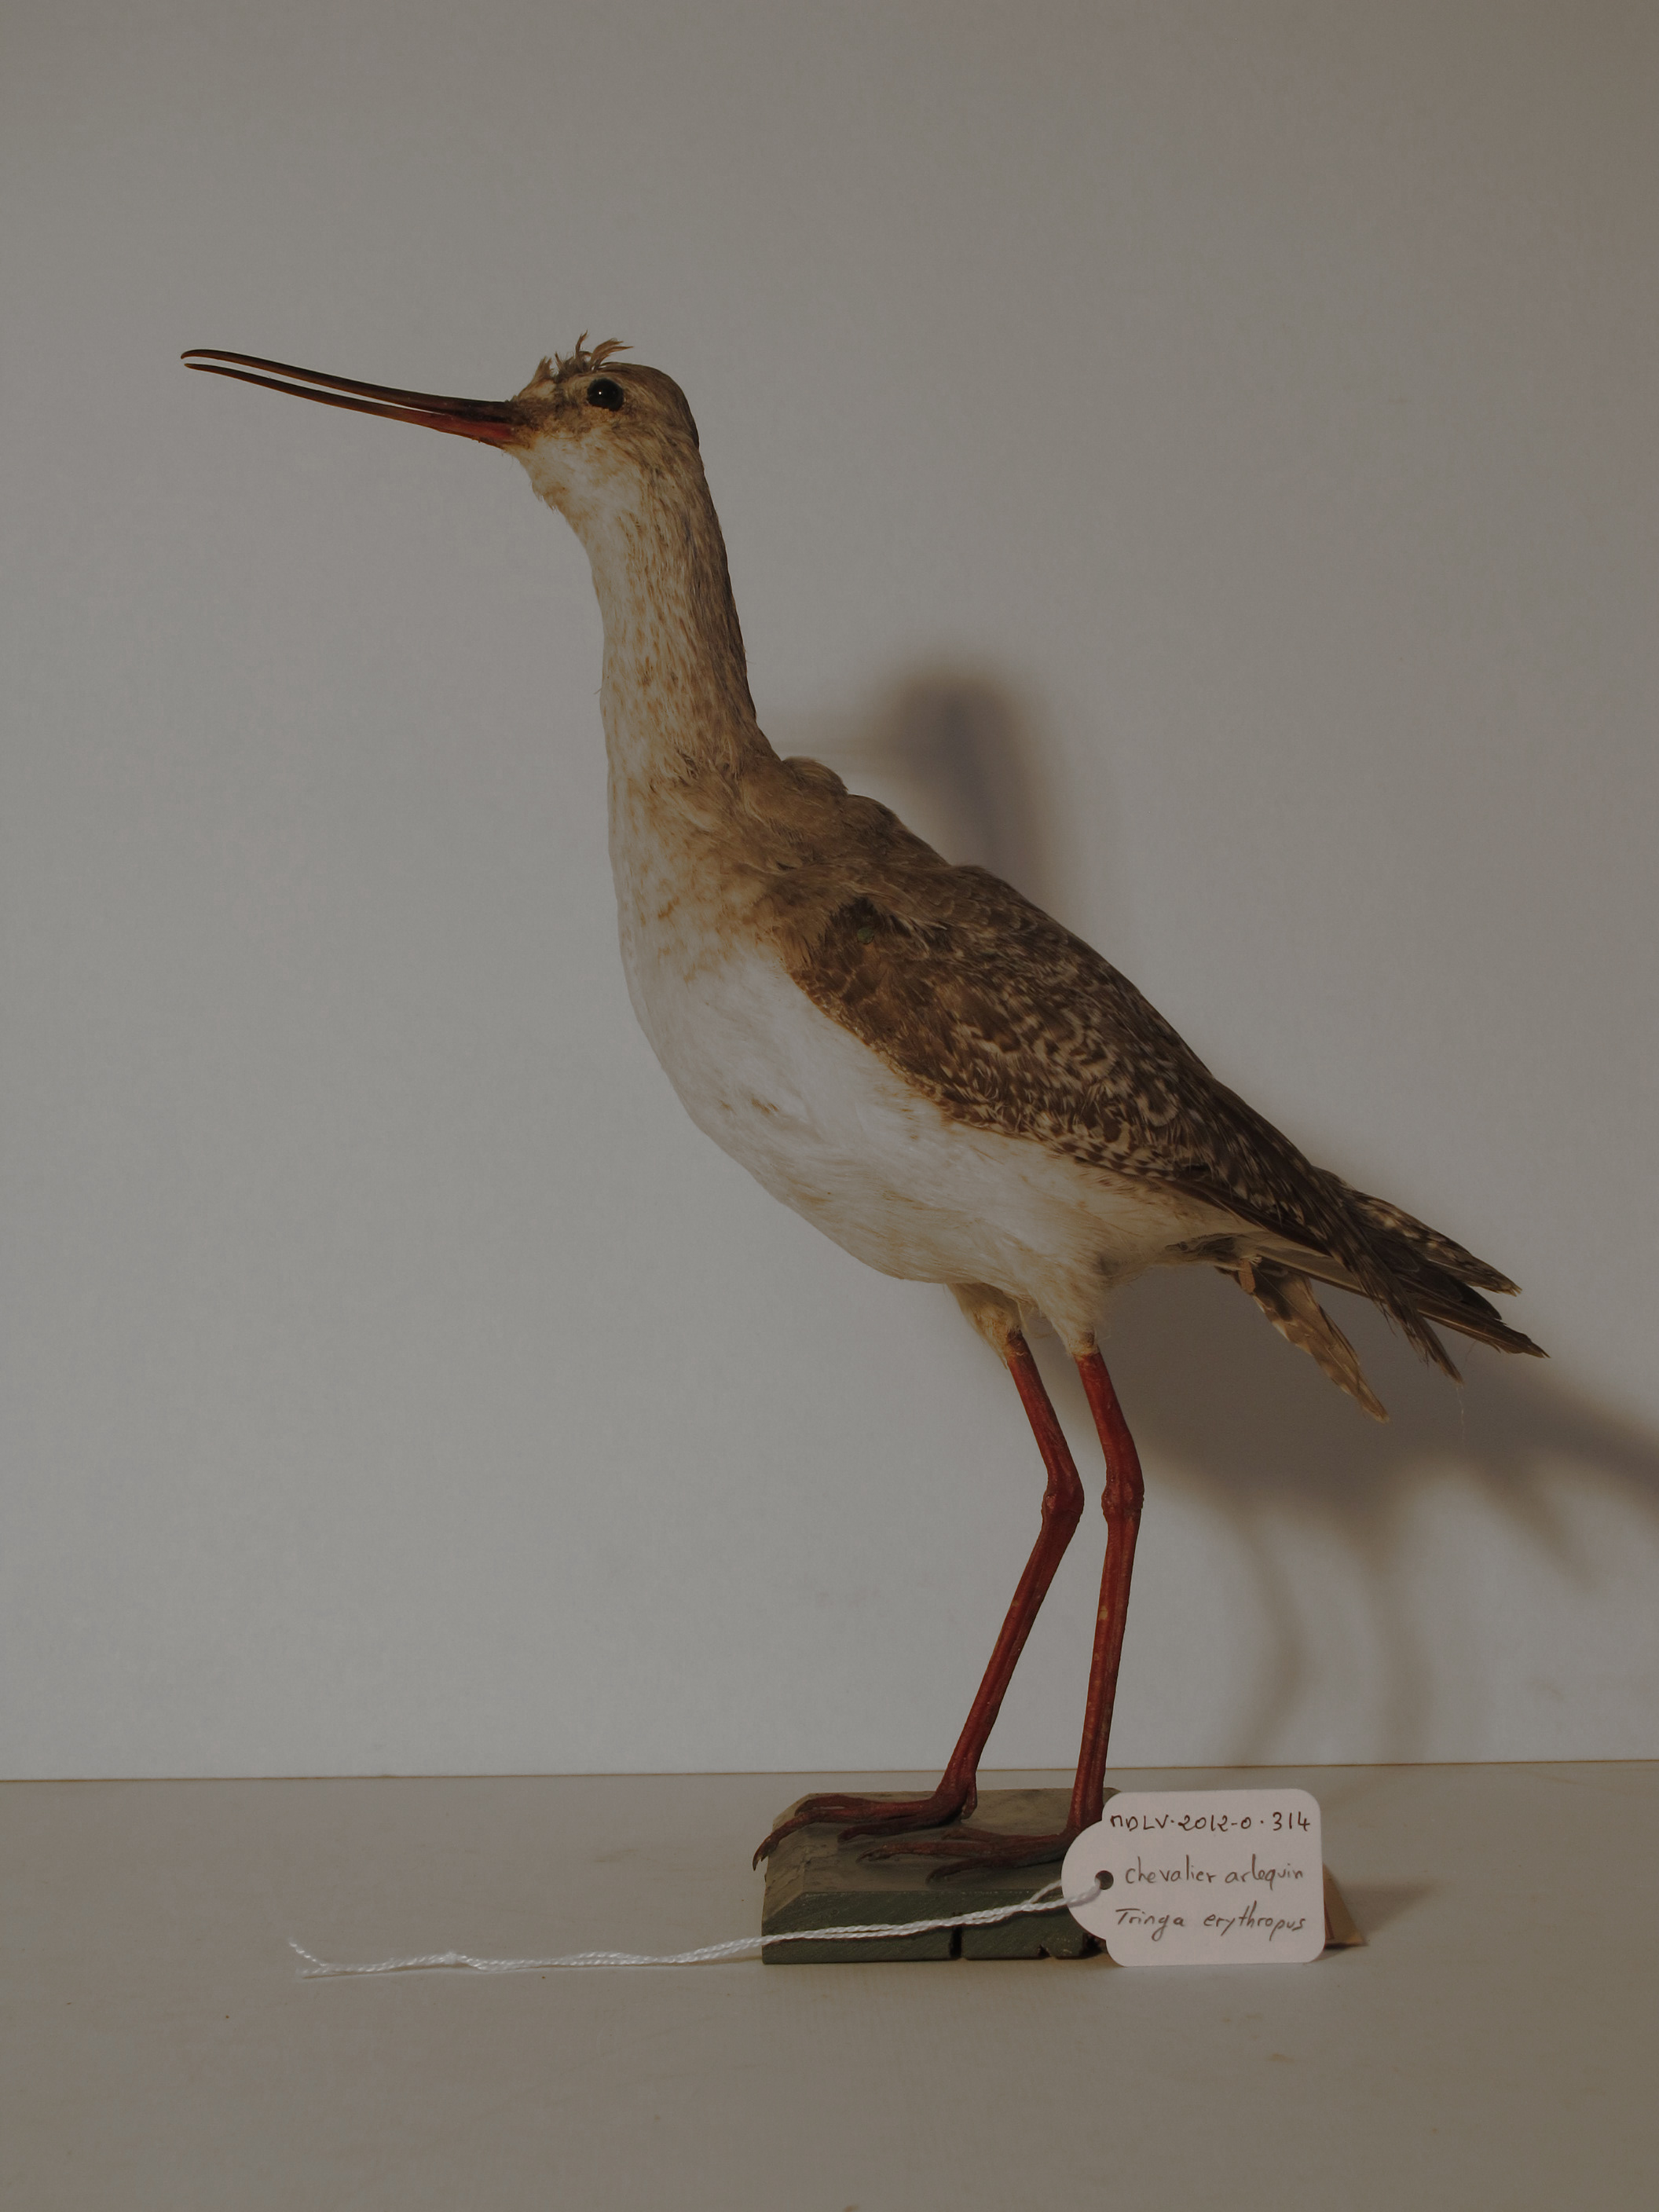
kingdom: Animalia
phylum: Chordata
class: Aves
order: Charadriiformes
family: Scolopacidae
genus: Tringa
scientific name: Tringa erythropus
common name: Spotted Redshank
